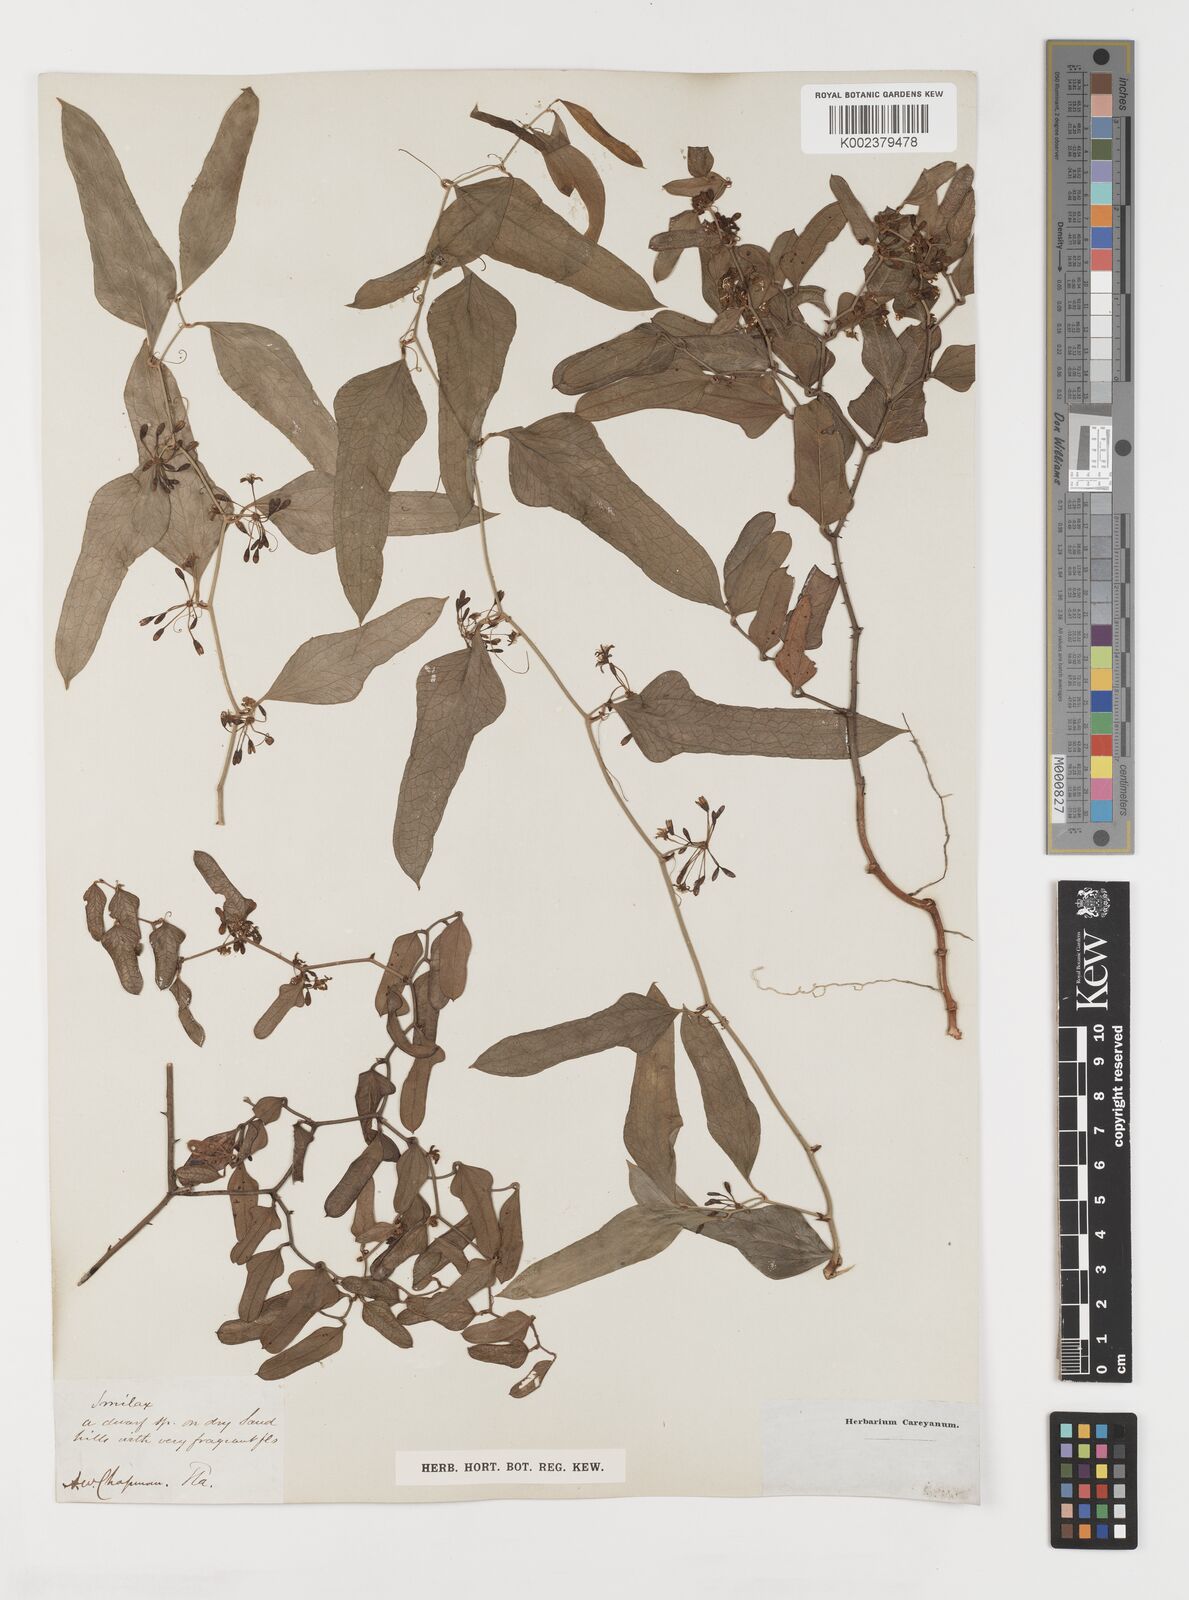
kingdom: Plantae
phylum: Tracheophyta
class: Liliopsida
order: Liliales
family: Smilacaceae
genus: Smilax
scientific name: Smilax
